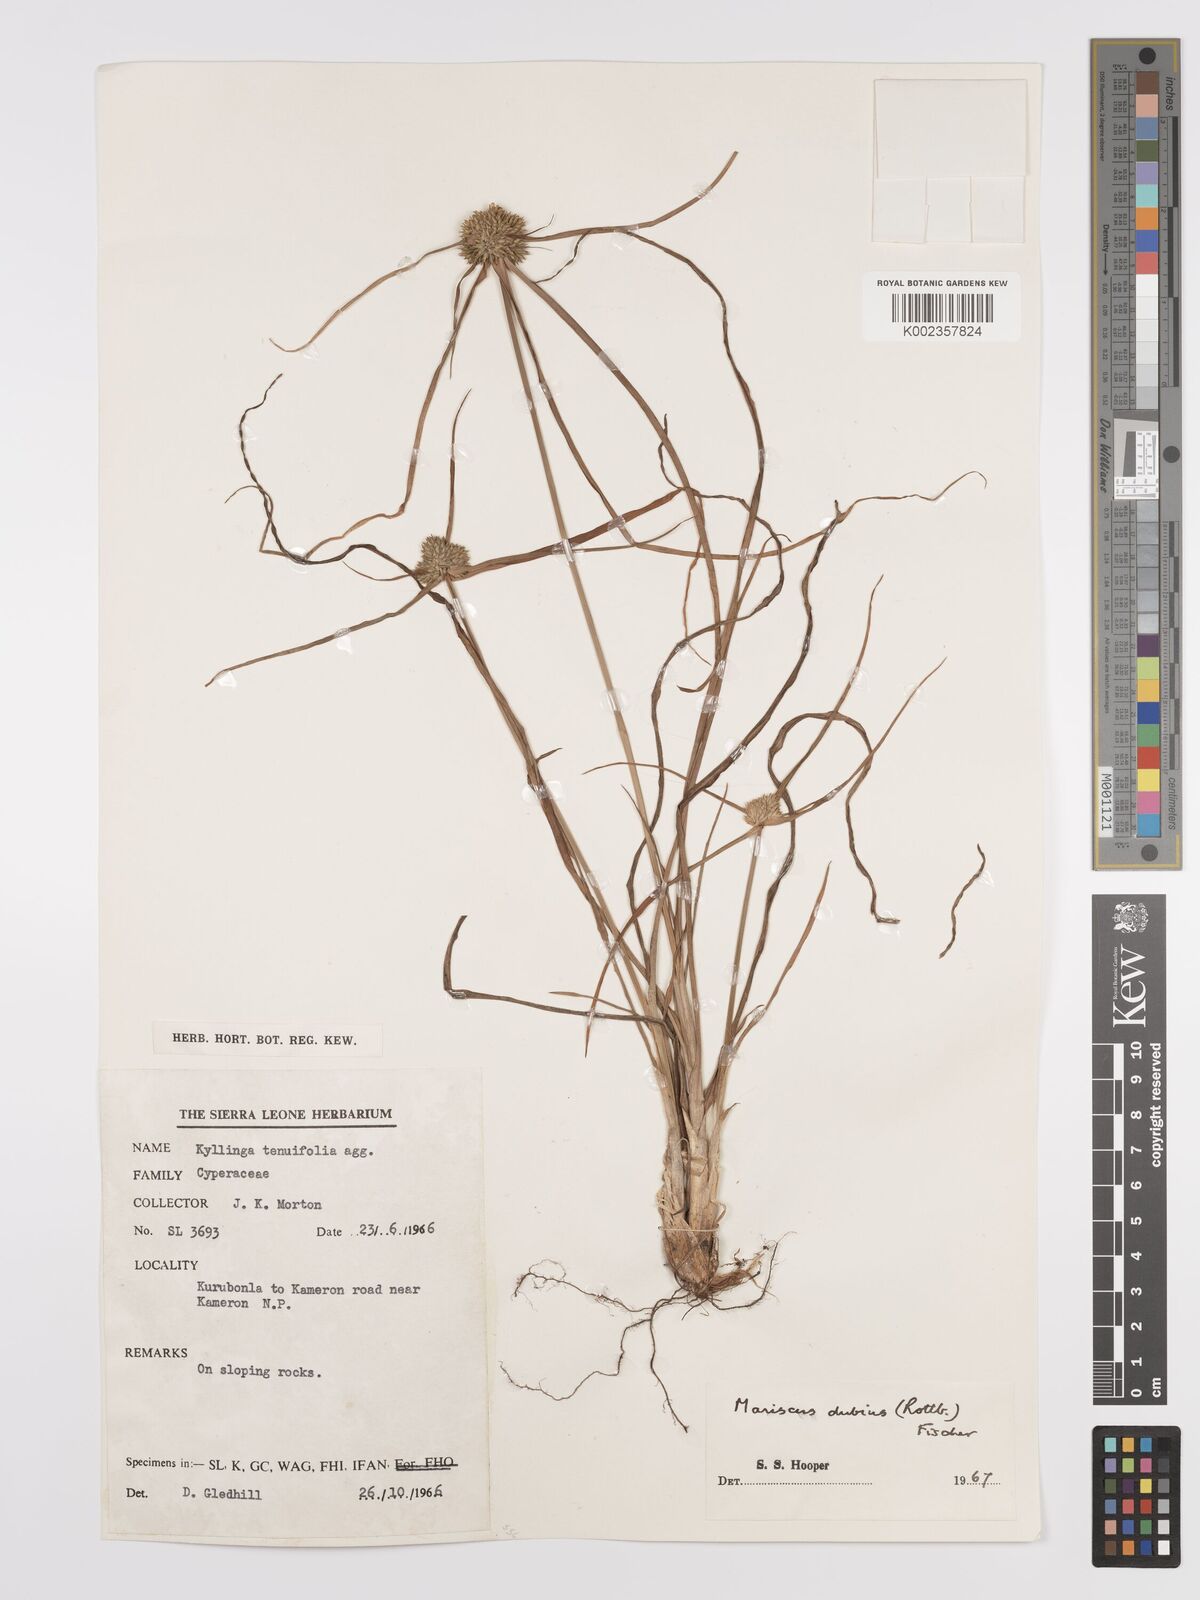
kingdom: Plantae
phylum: Tracheophyta
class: Liliopsida
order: Poales
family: Cyperaceae
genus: Cyperus
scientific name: Cyperus dubius
